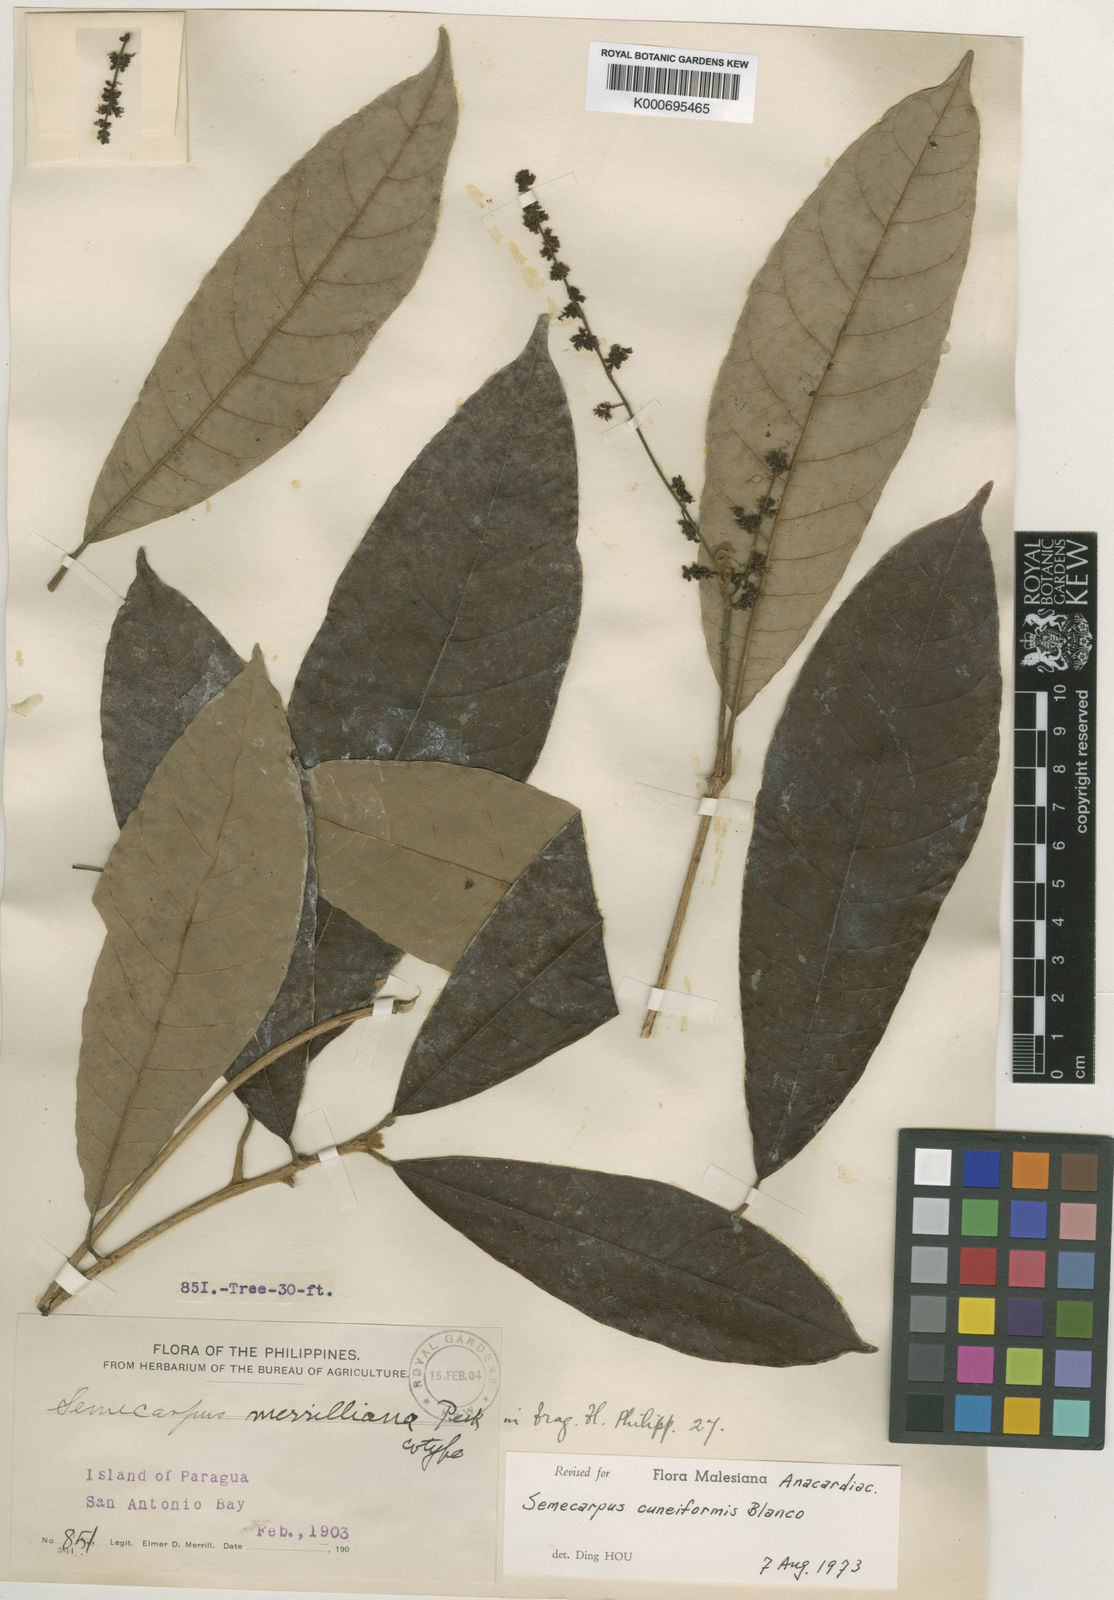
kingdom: Plantae
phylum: Tracheophyta
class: Magnoliopsida
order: Sapindales
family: Anacardiaceae
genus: Semecarpus
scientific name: Semecarpus cuneiformis
